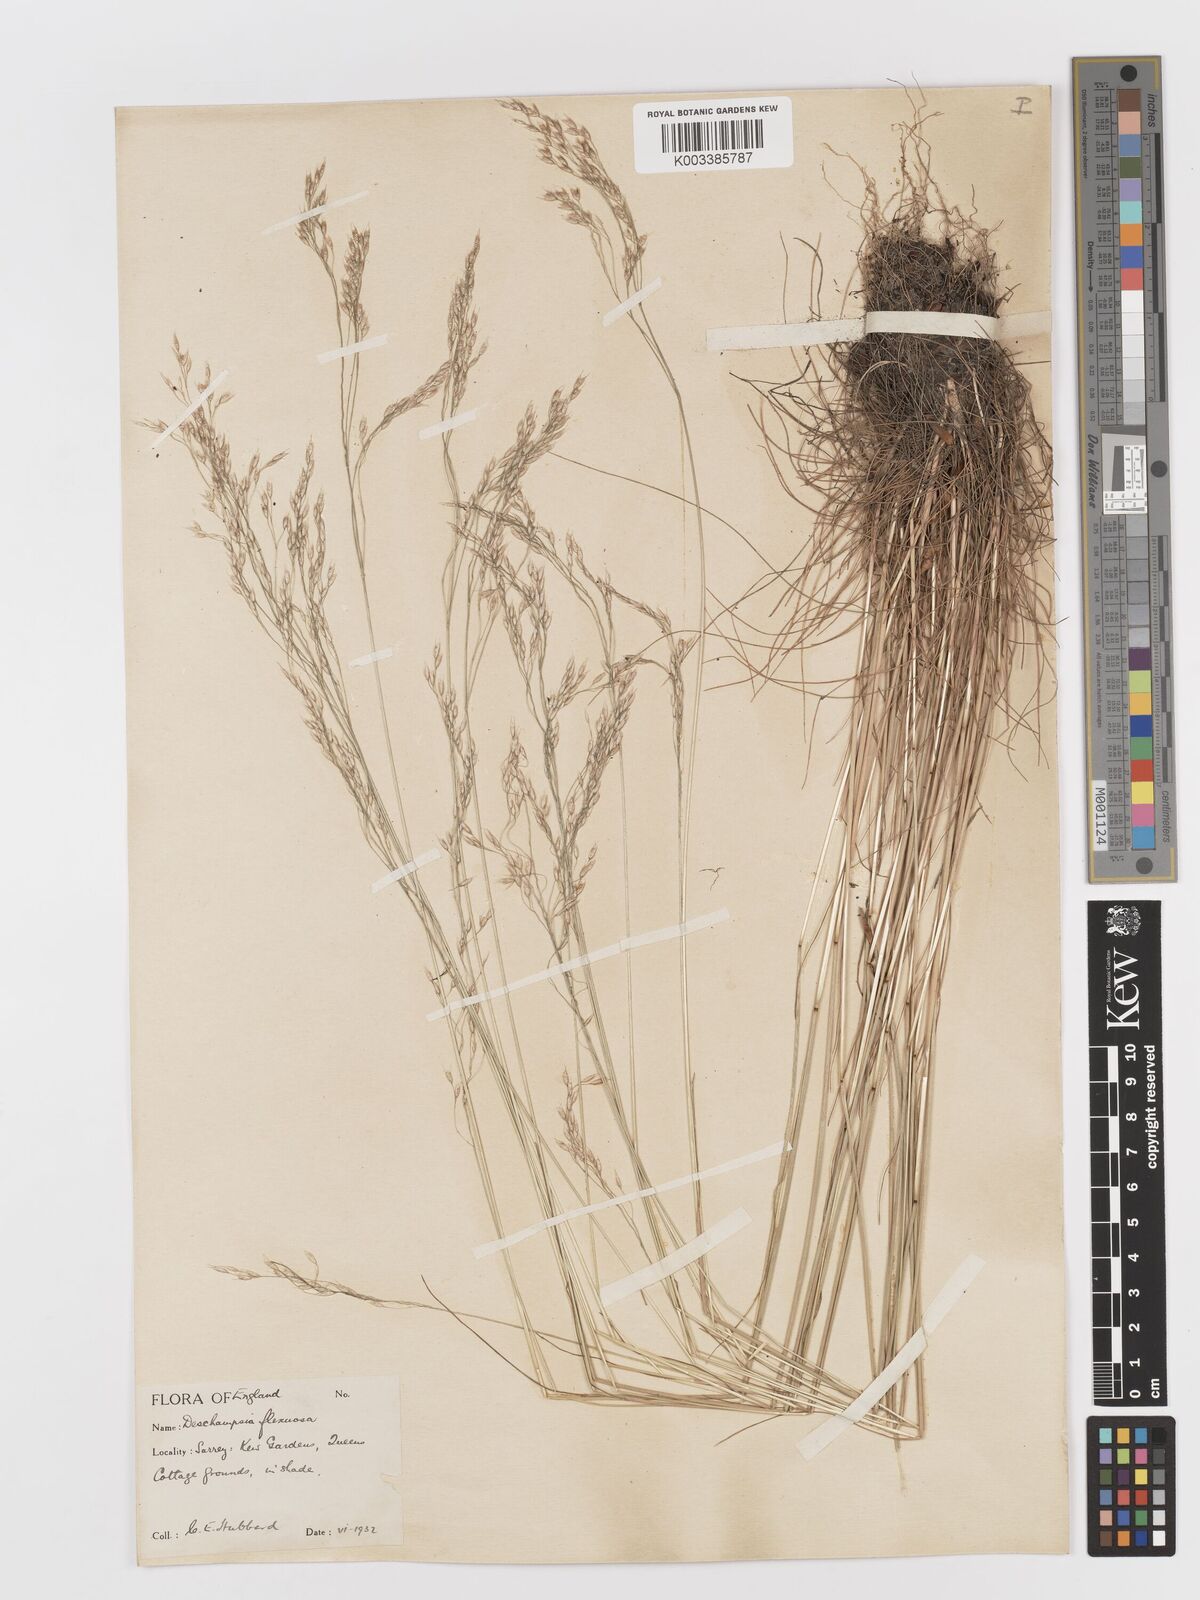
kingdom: Plantae
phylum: Tracheophyta
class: Liliopsida
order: Poales
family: Poaceae
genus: Avenella
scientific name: Avenella flexuosa
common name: Wavy hairgrass
